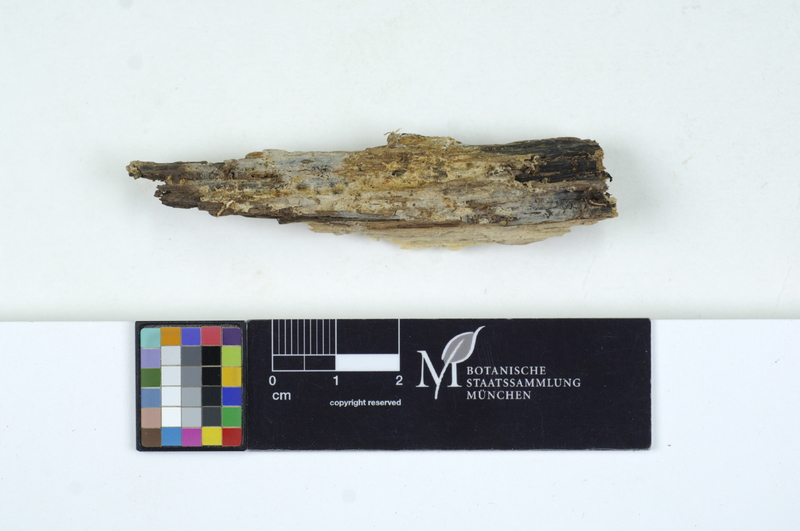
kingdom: Fungi
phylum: Basidiomycota
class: Agaricomycetes
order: Cantharellales
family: Oliveoniaceae
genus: Oliveonia
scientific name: Oliveonia nodosa
